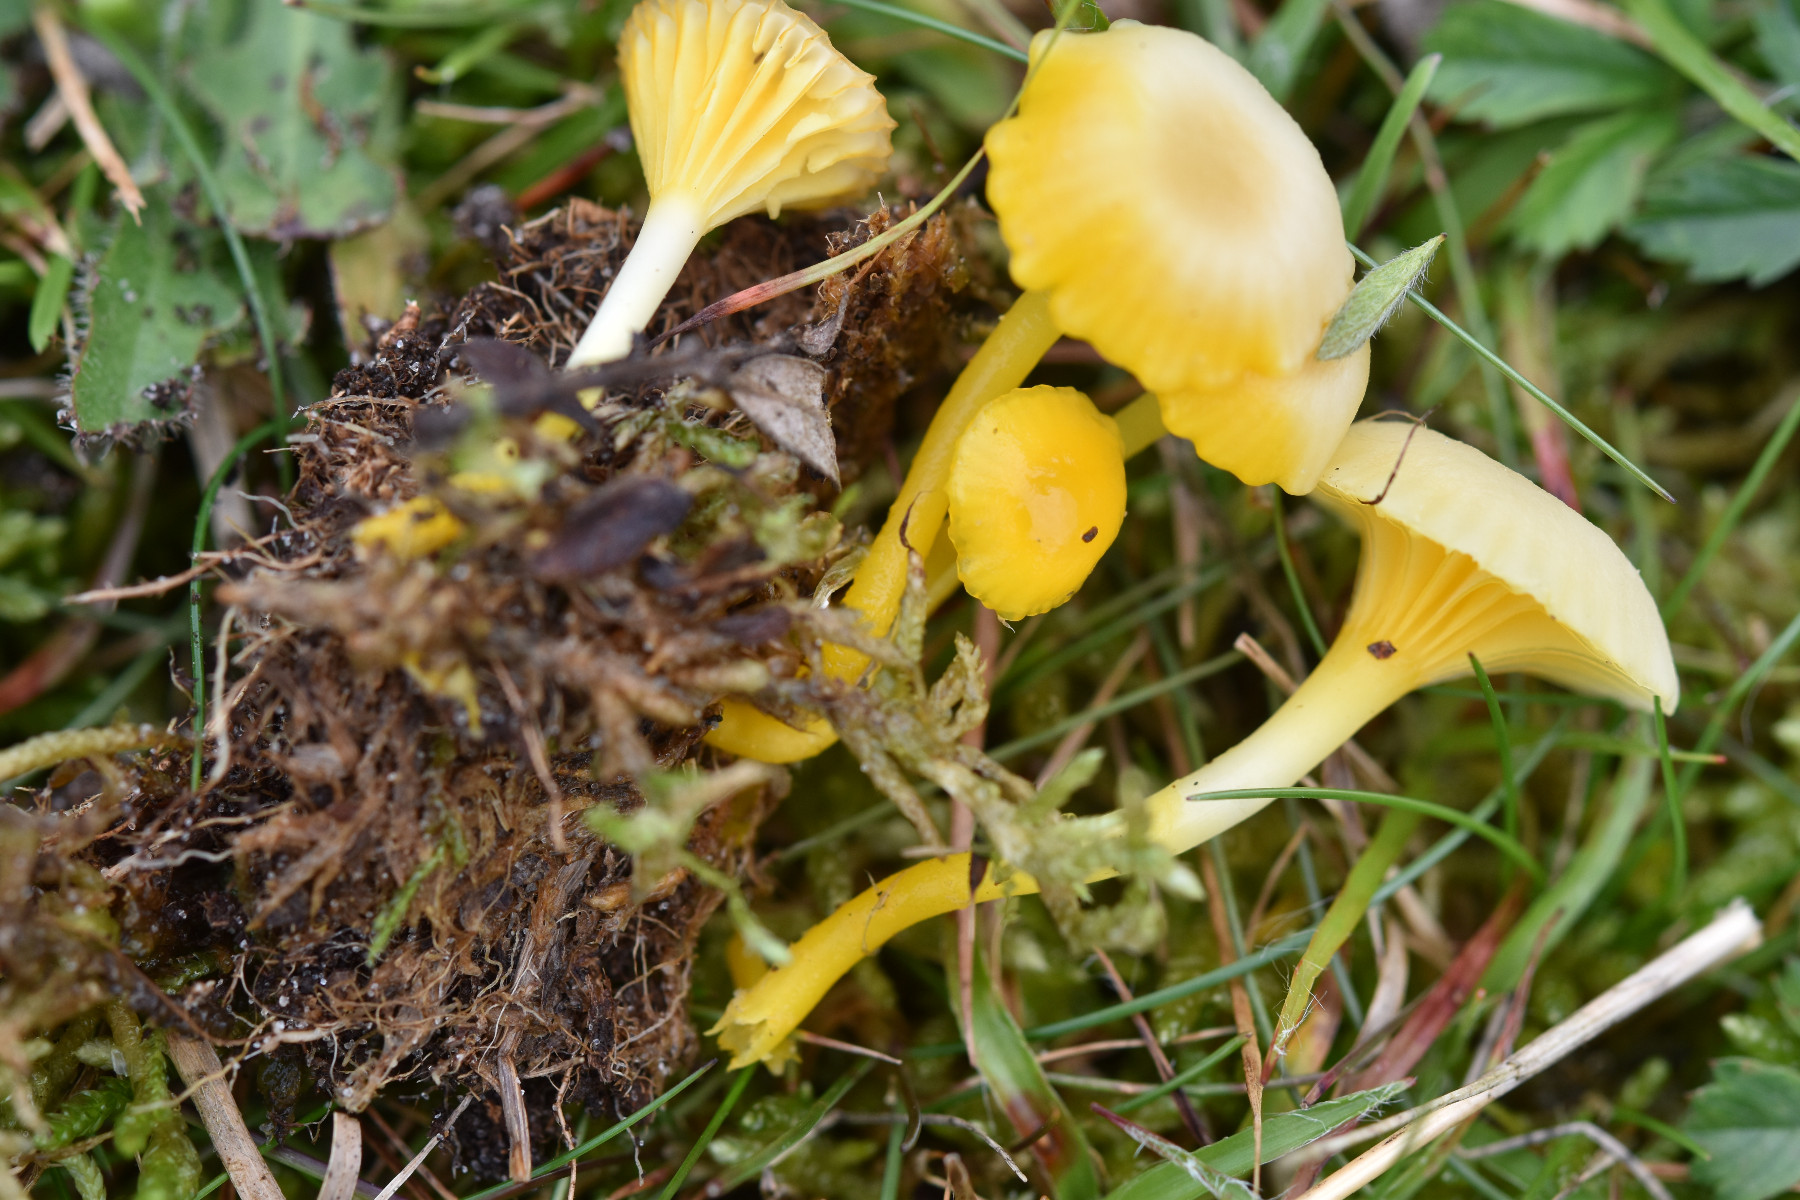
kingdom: Fungi
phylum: Basidiomycota
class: Agaricomycetes
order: Agaricales
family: Hygrophoraceae
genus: Gloioxanthomyces
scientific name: Gloioxanthomyces vitellinus
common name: kromgul vokshat
